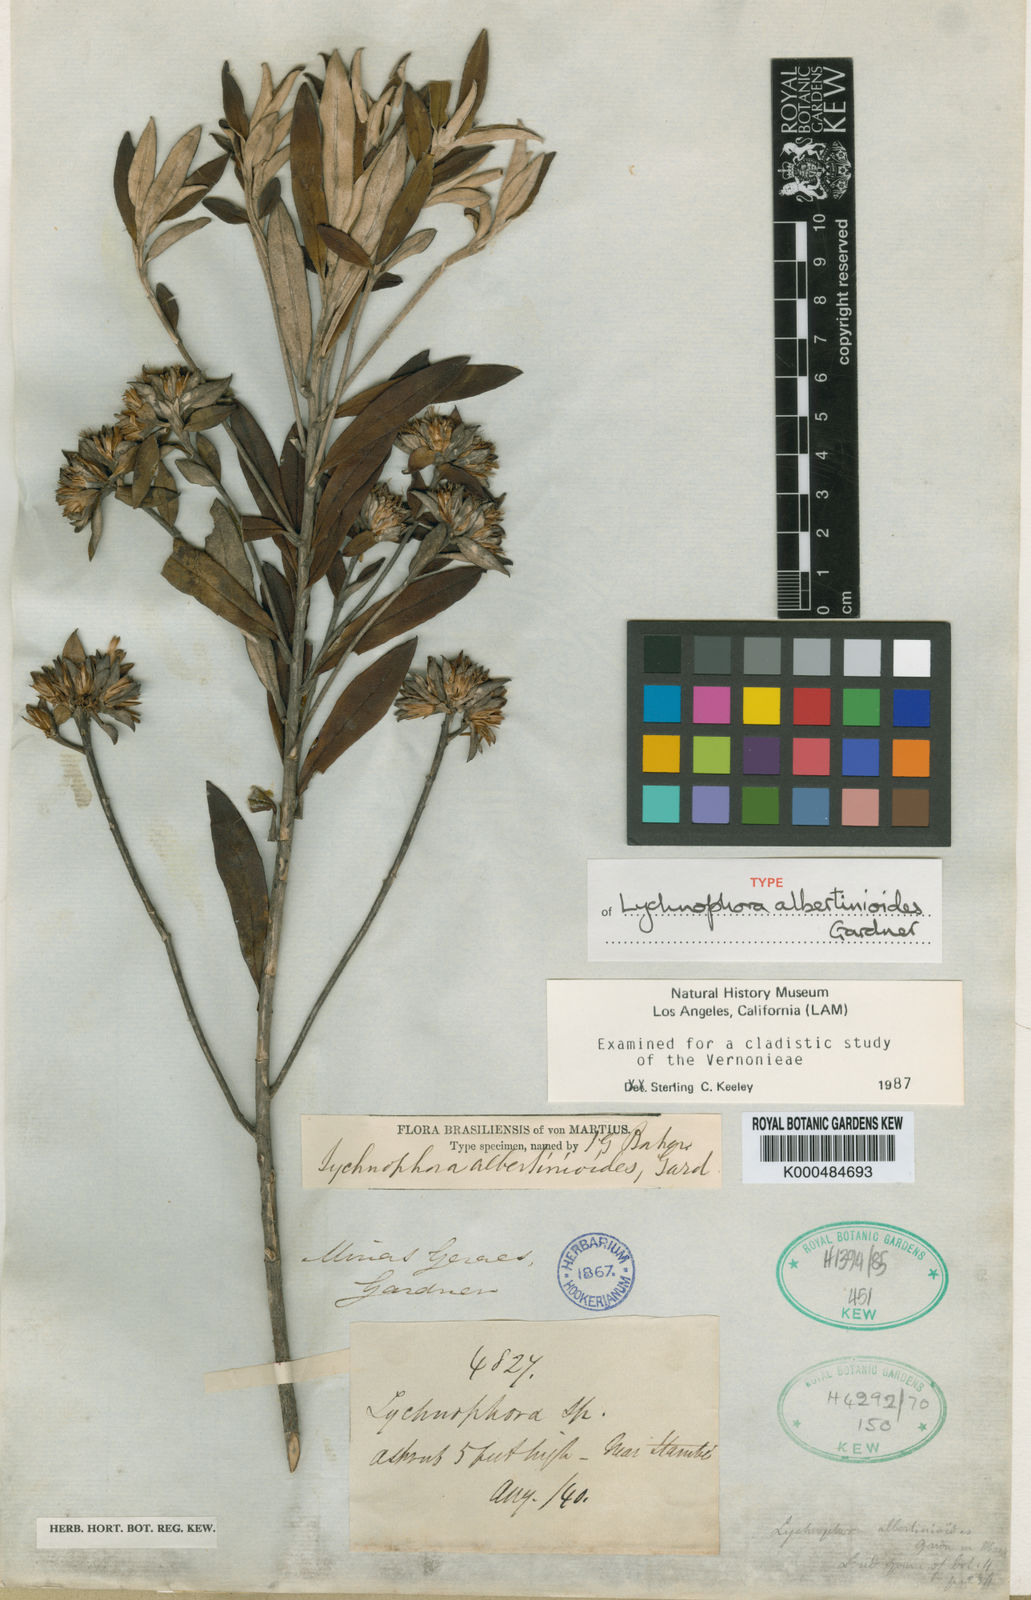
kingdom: Plantae
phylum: Tracheophyta
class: Magnoliopsida
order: Asterales
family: Asteraceae
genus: Piptolepis
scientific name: Piptolepis
